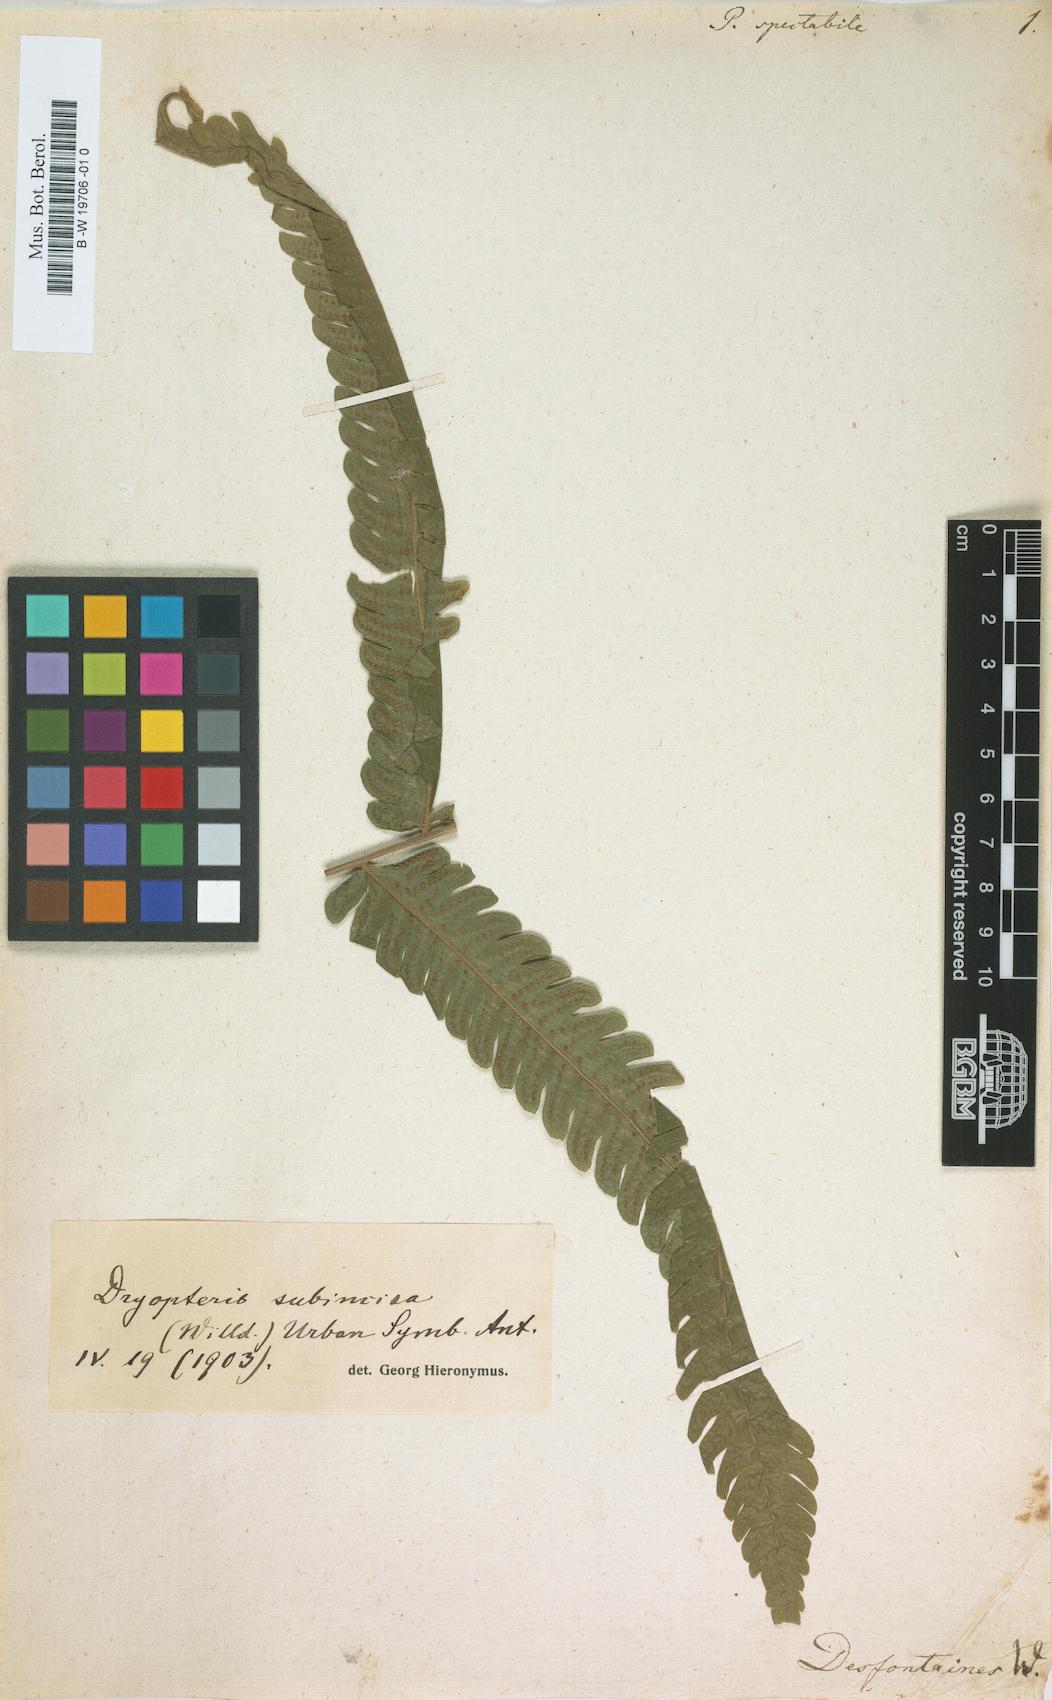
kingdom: Plantae
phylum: Tracheophyta
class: Polypodiopsida
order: Polypodiales
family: Dryopteridaceae
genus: Megalastrum
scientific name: Megalastrum spectabile
